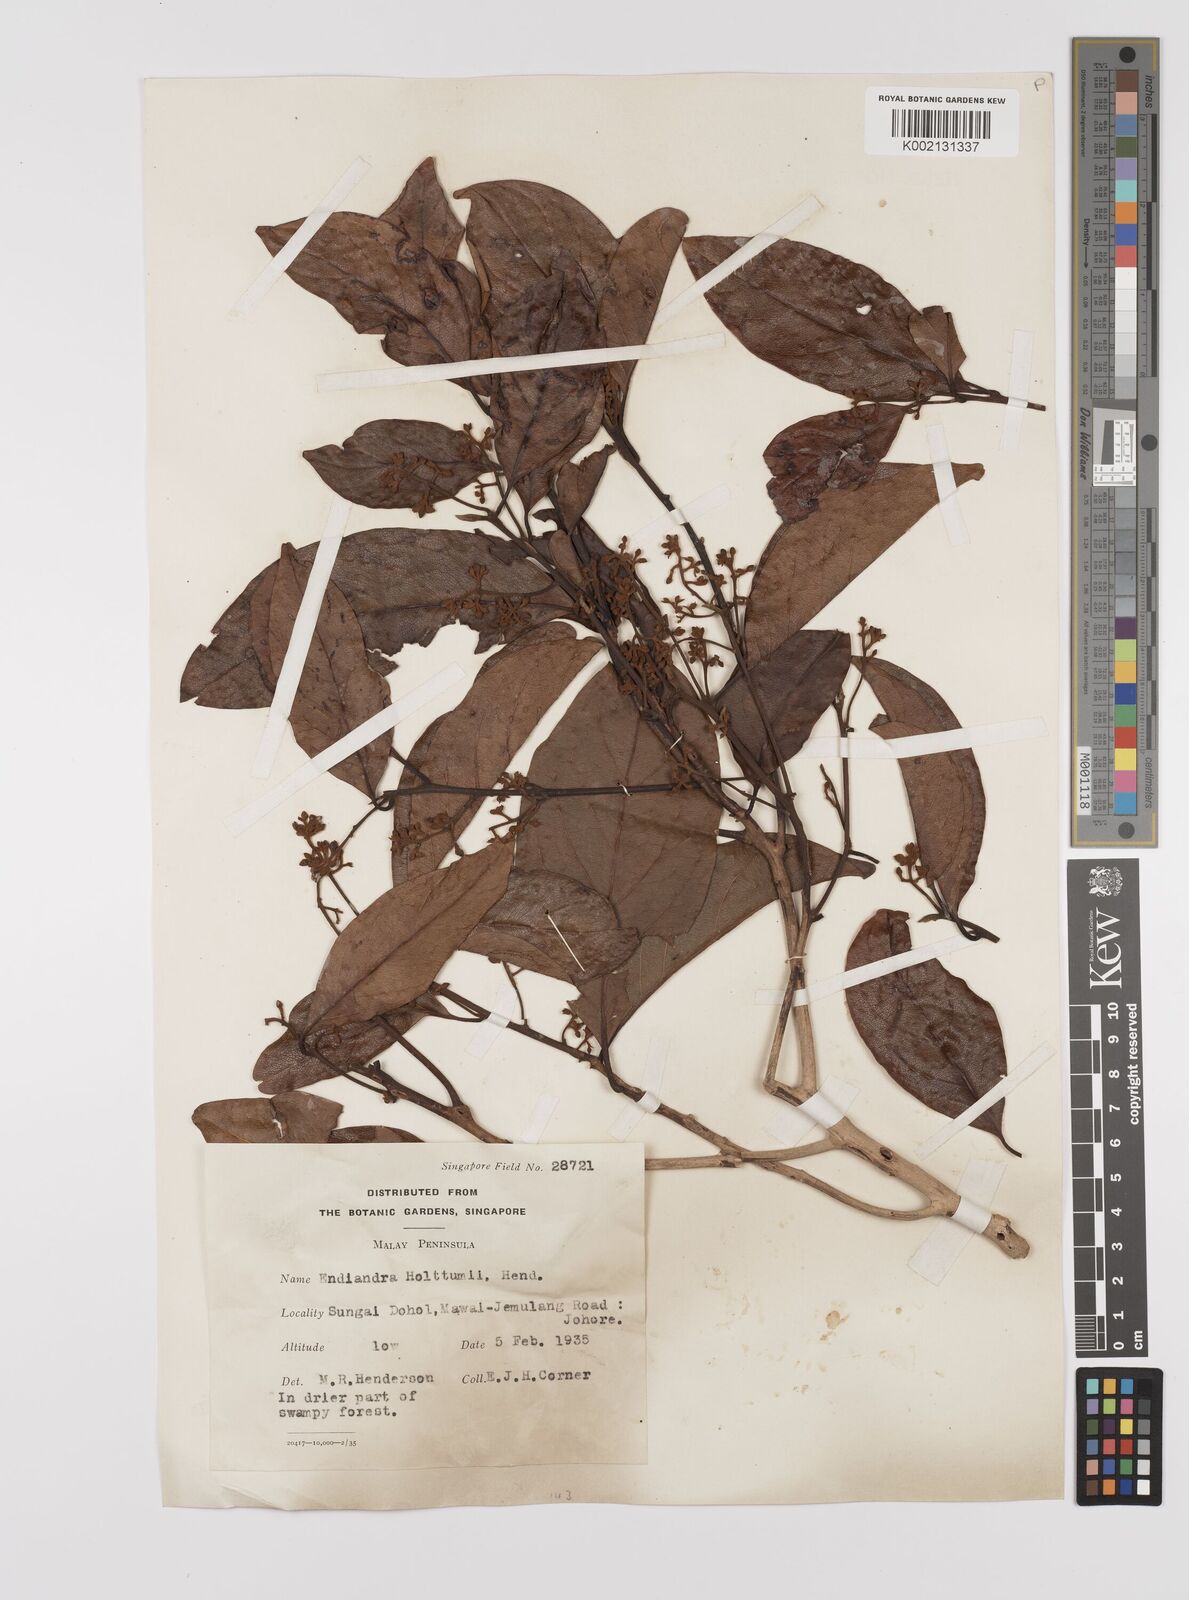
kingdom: Plantae
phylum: Tracheophyta
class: Magnoliopsida
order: Laurales
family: Lauraceae
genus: Endiandra
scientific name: Endiandra holttumii
